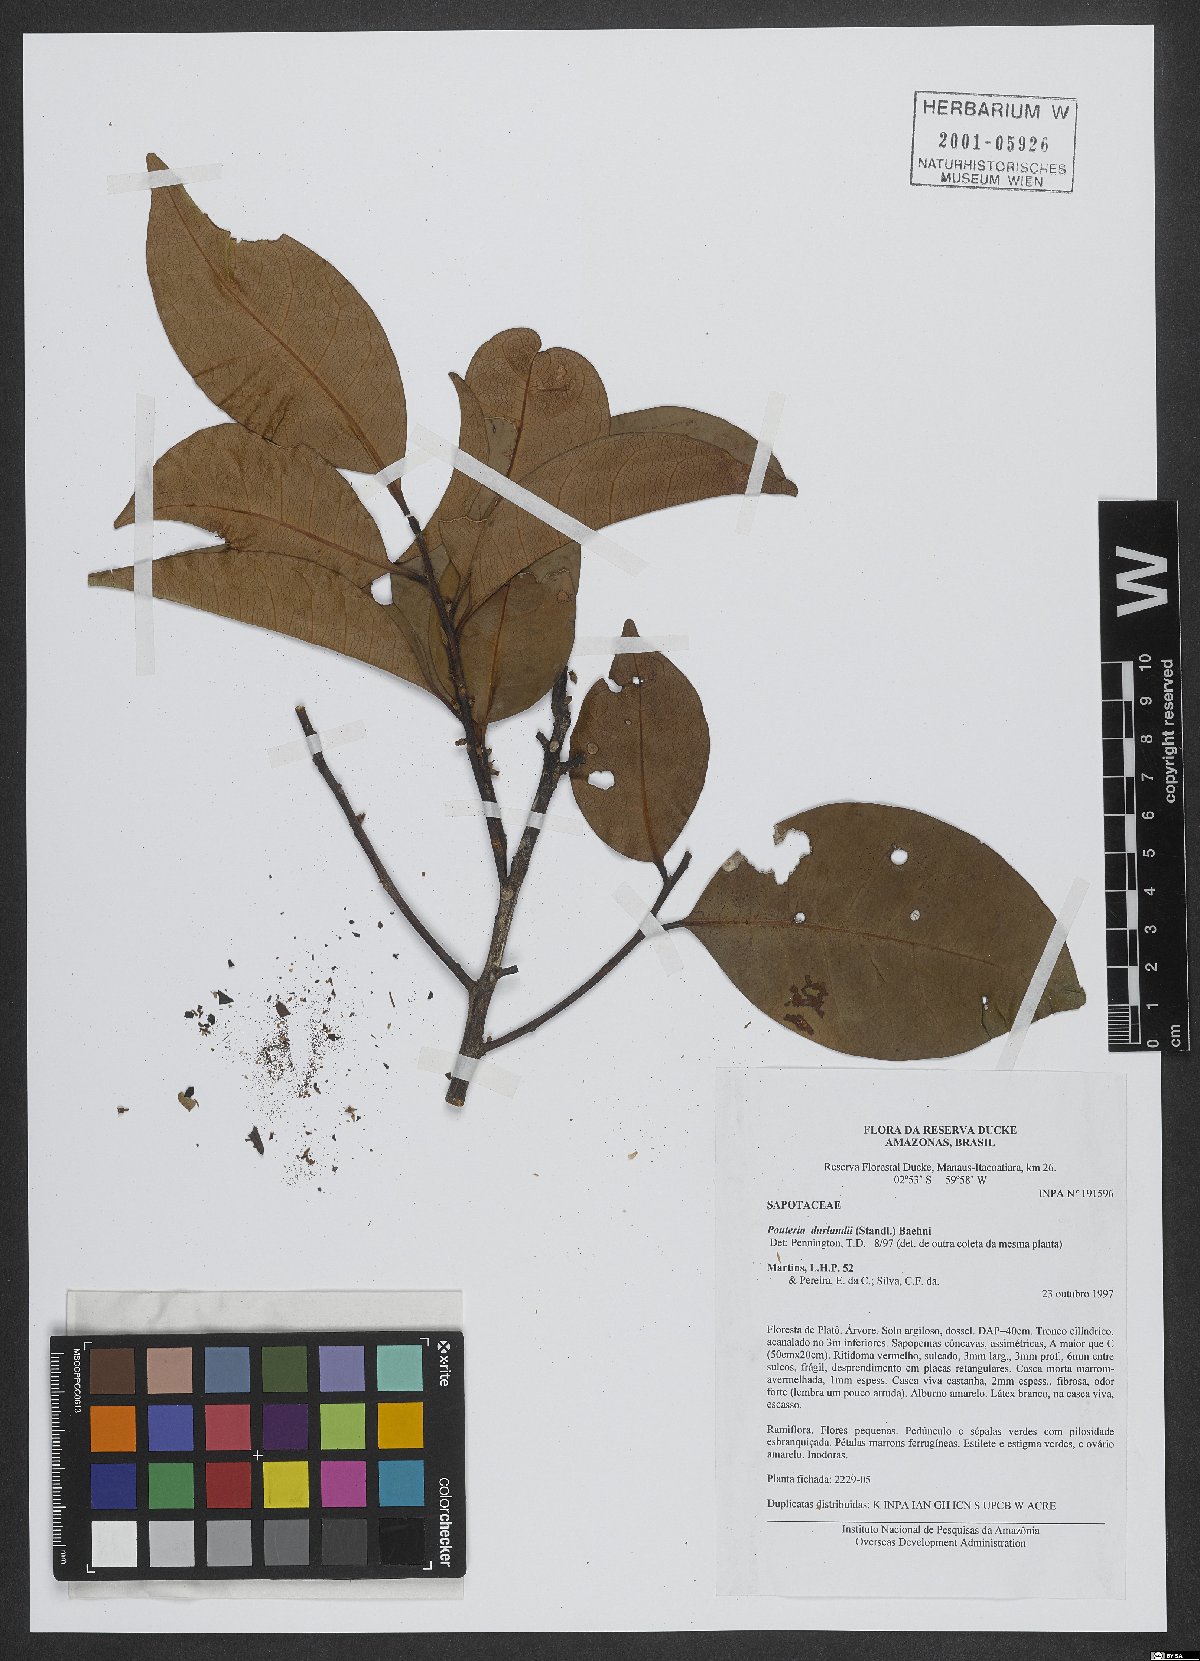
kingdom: Plantae
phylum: Tracheophyta
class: Magnoliopsida
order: Ericales
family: Sapotaceae
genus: Pouteria
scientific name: Pouteria durlandii
